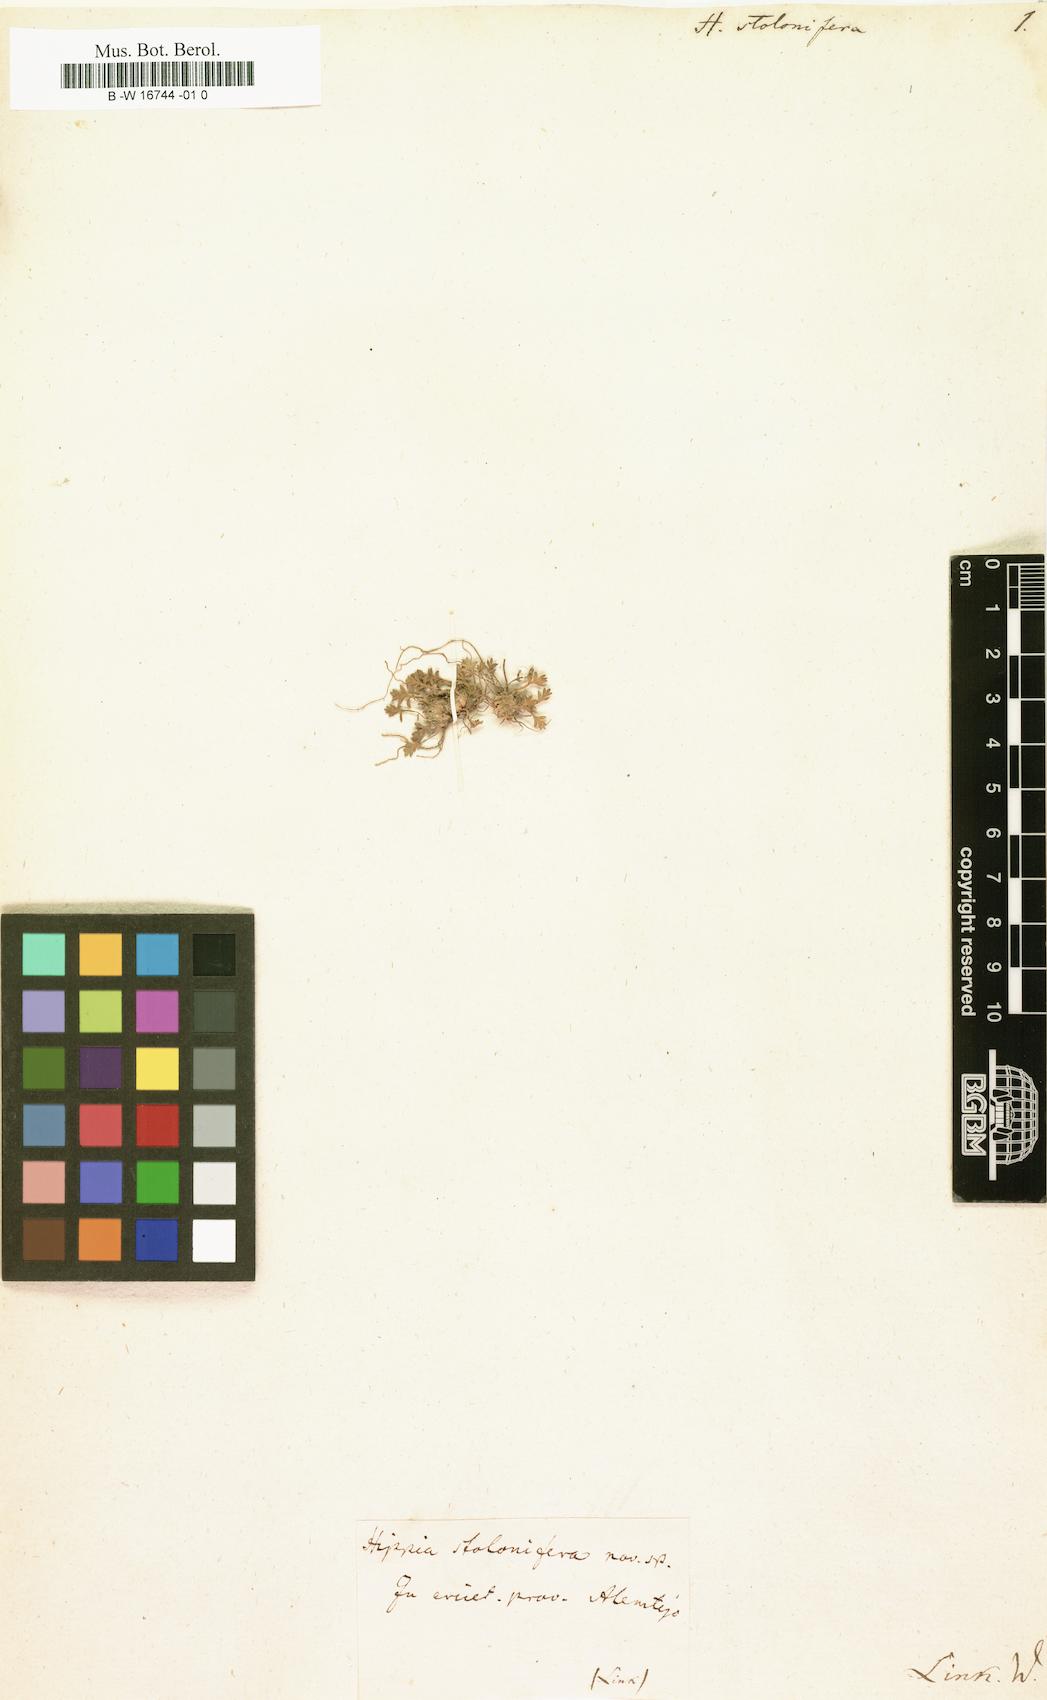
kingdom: Plantae
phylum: Tracheophyta
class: Magnoliopsida
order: Asterales
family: Asteraceae
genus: Soliva
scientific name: Soliva stolonifera
